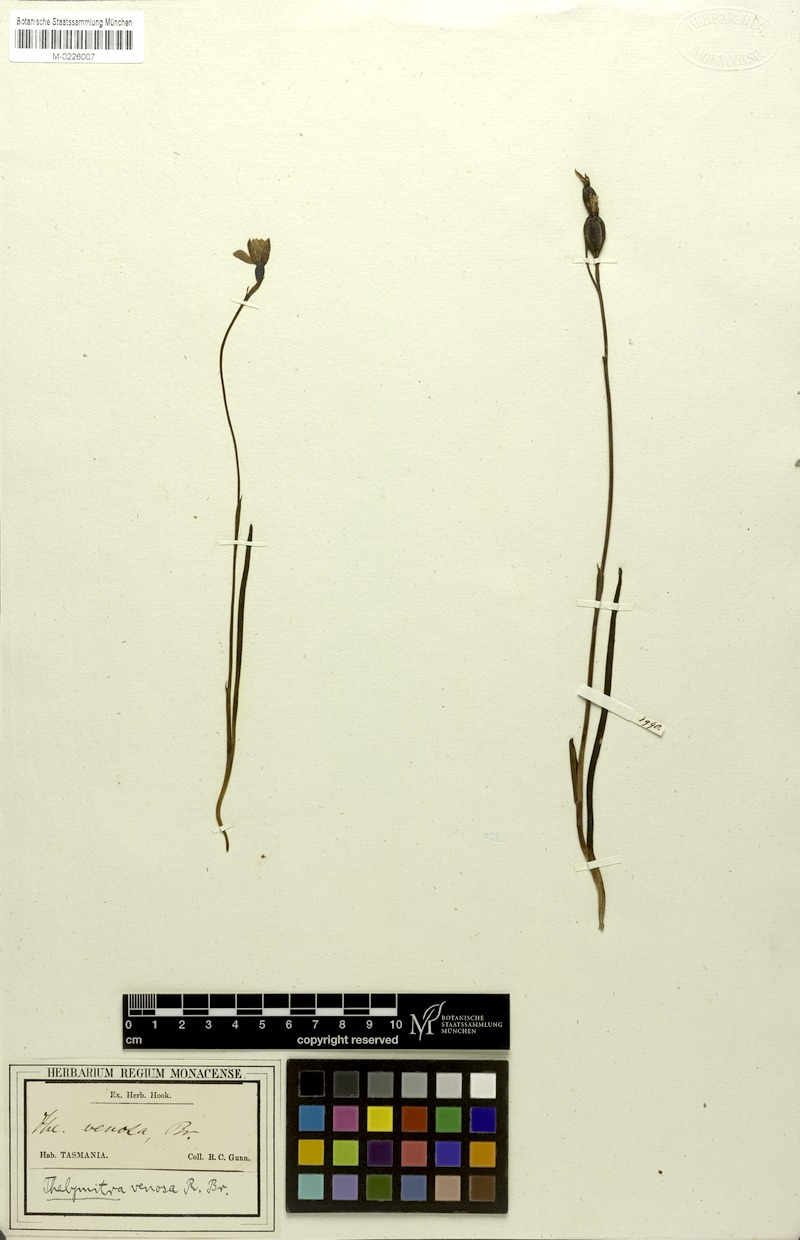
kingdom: Plantae
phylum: Tracheophyta
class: Liliopsida
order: Asparagales
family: Orchidaceae
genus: Thelymitra
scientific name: Thelymitra venosa
